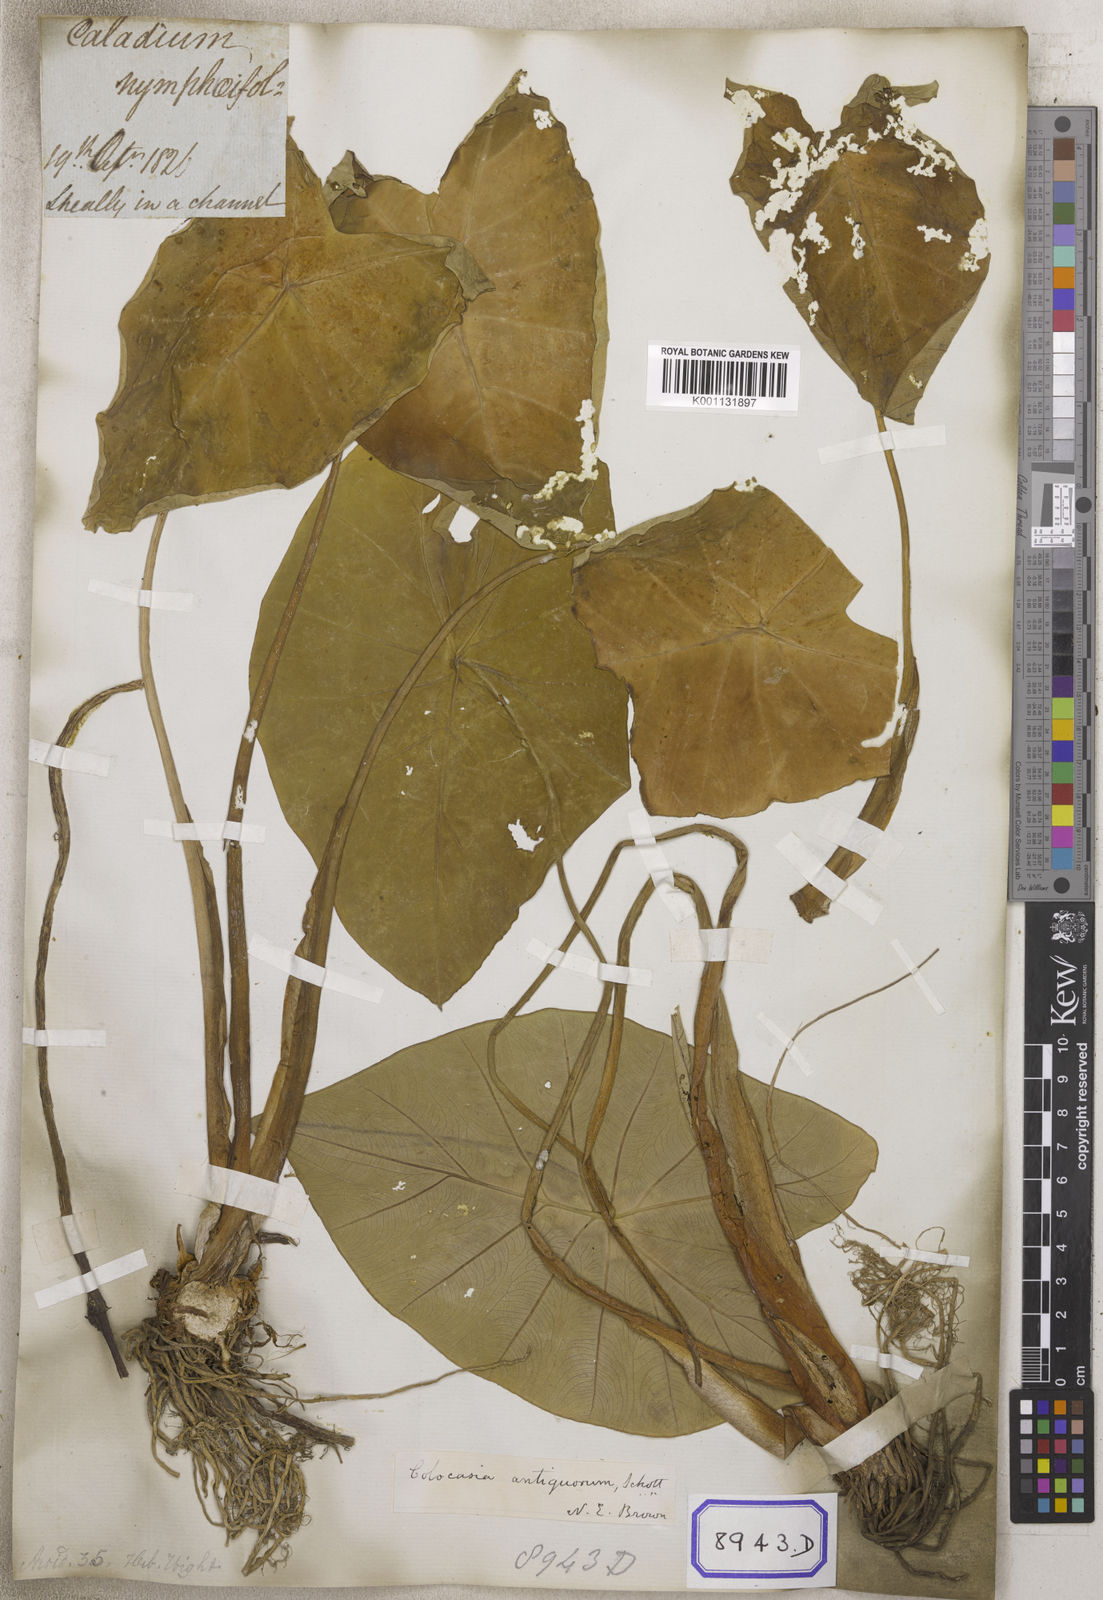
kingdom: Plantae
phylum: Tracheophyta
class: Liliopsida
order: Alismatales
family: Araceae
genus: Colocasia
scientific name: Colocasia spec
